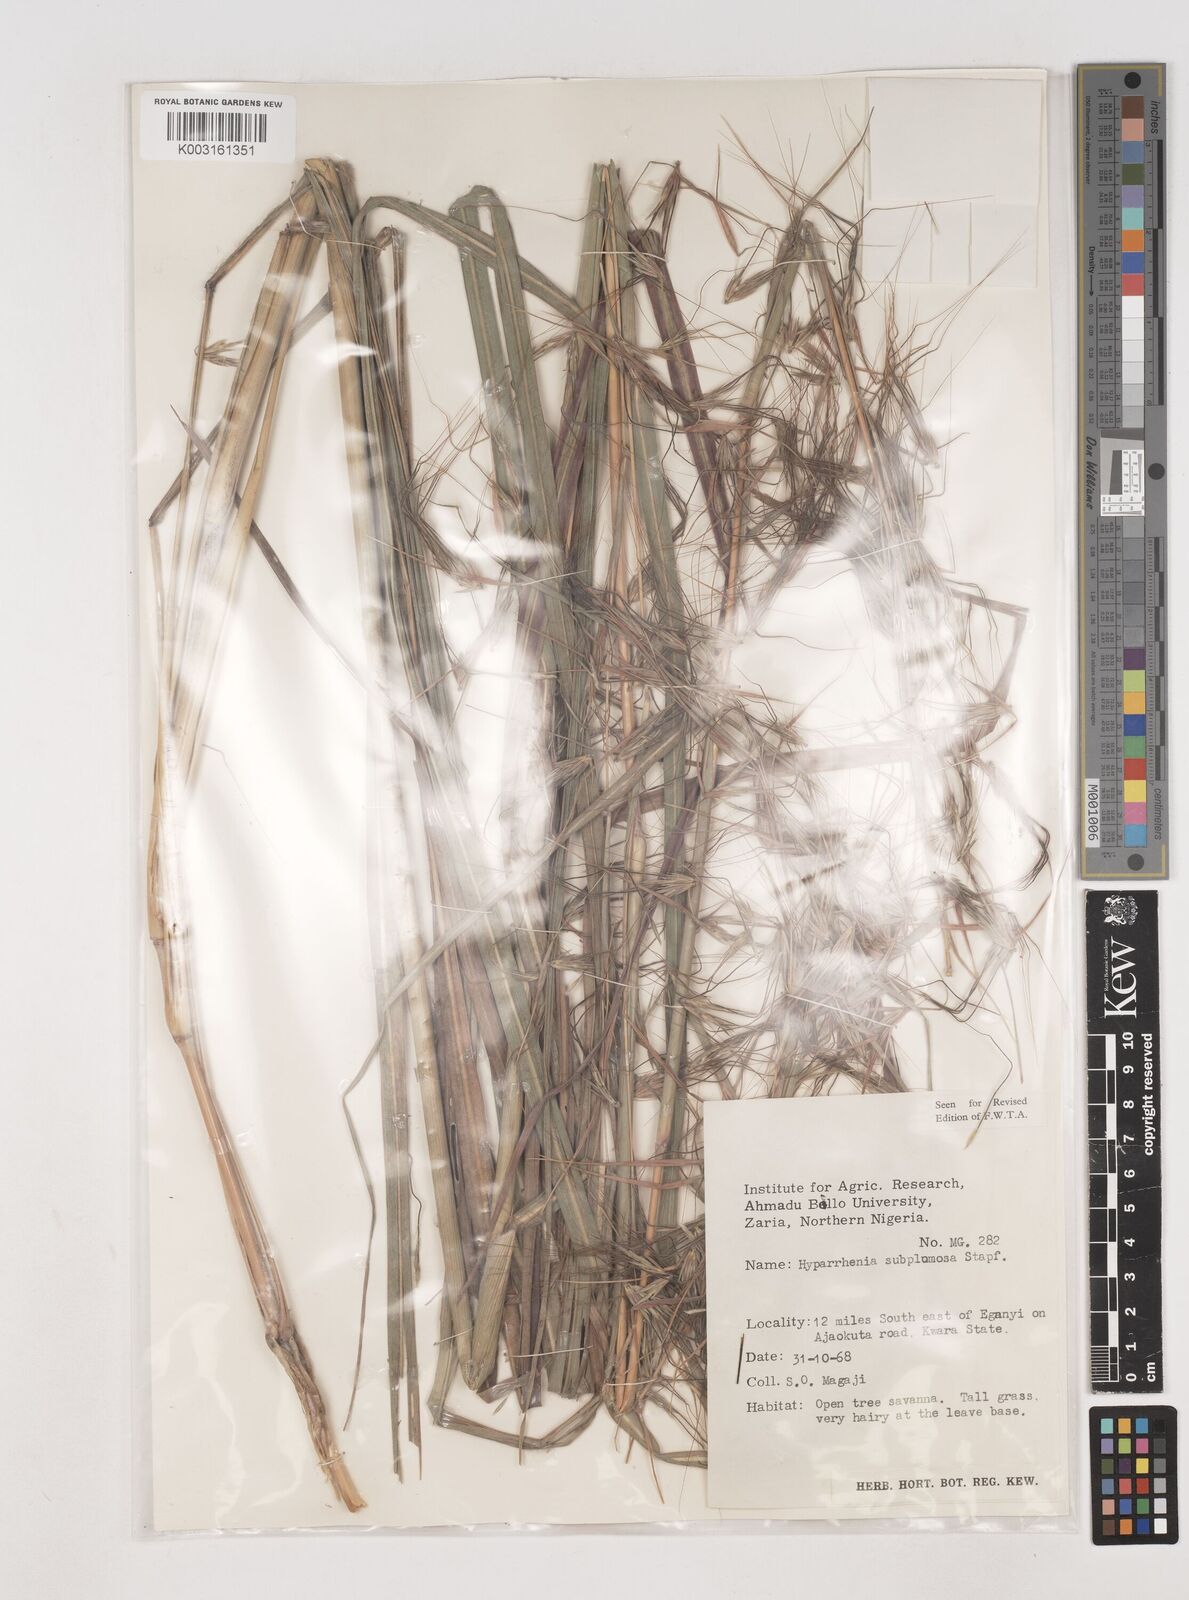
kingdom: Plantae
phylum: Tracheophyta
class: Liliopsida
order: Poales
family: Poaceae
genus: Hyparrhenia
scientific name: Hyparrhenia subplumosa
